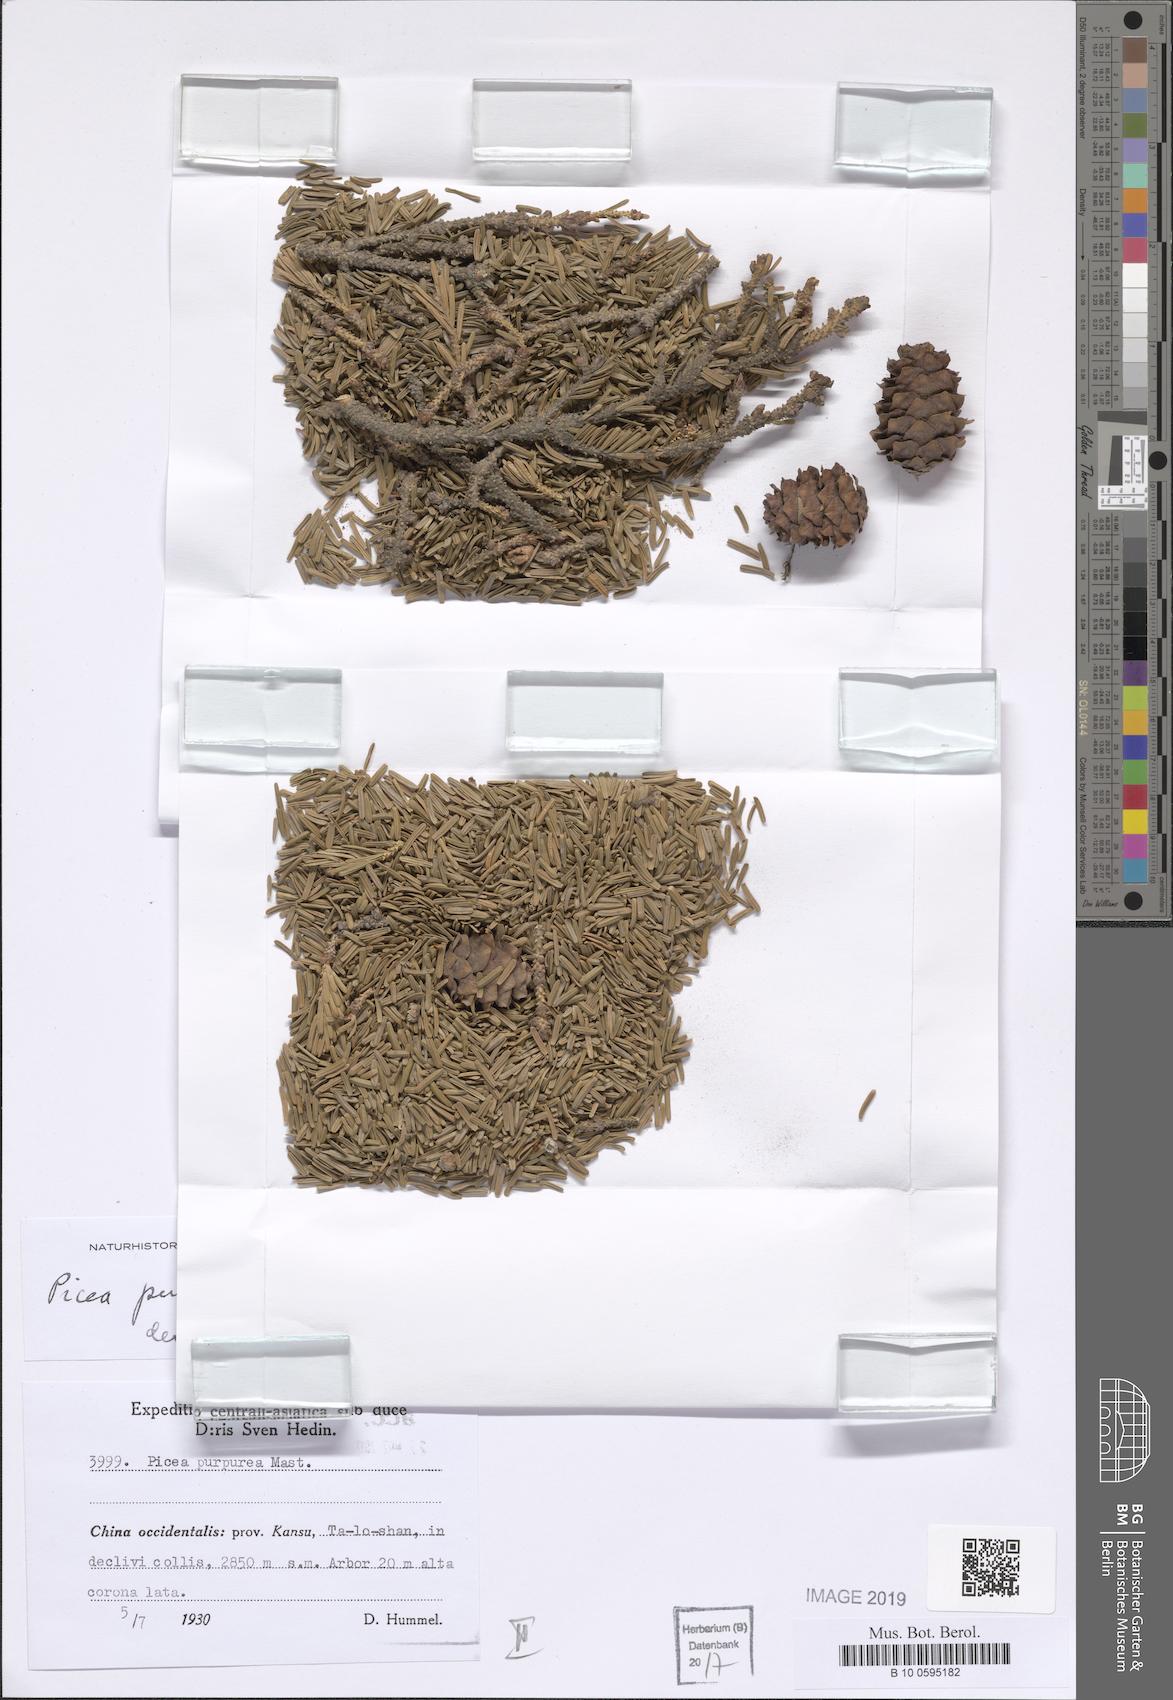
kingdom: Plantae
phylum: Tracheophyta
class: Pinopsida
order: Pinales
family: Pinaceae
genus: Picea
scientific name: Picea purpurea
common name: Purple cone spruce
